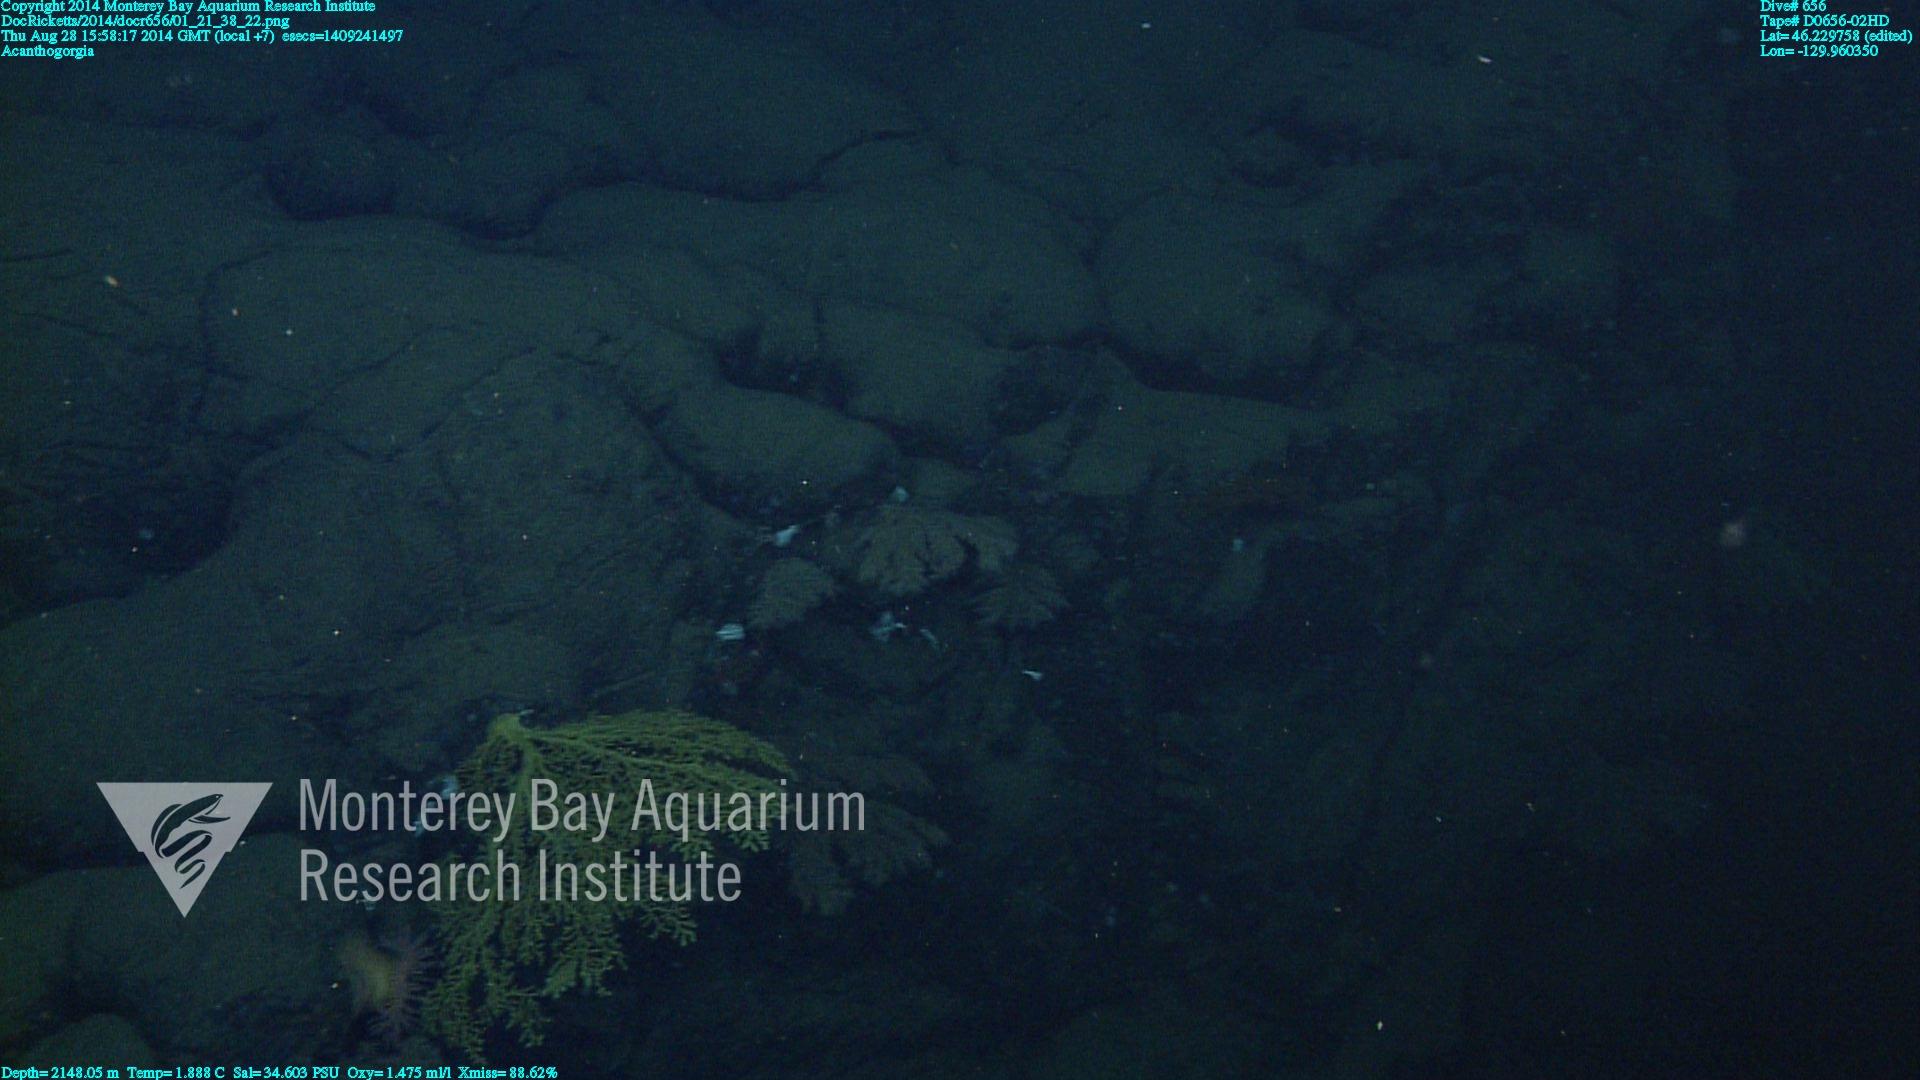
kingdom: Animalia
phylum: Cnidaria
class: Anthozoa
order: Malacalcyonacea
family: Paramuriceidae
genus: Acanthogorgia
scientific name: Acanthogorgia
